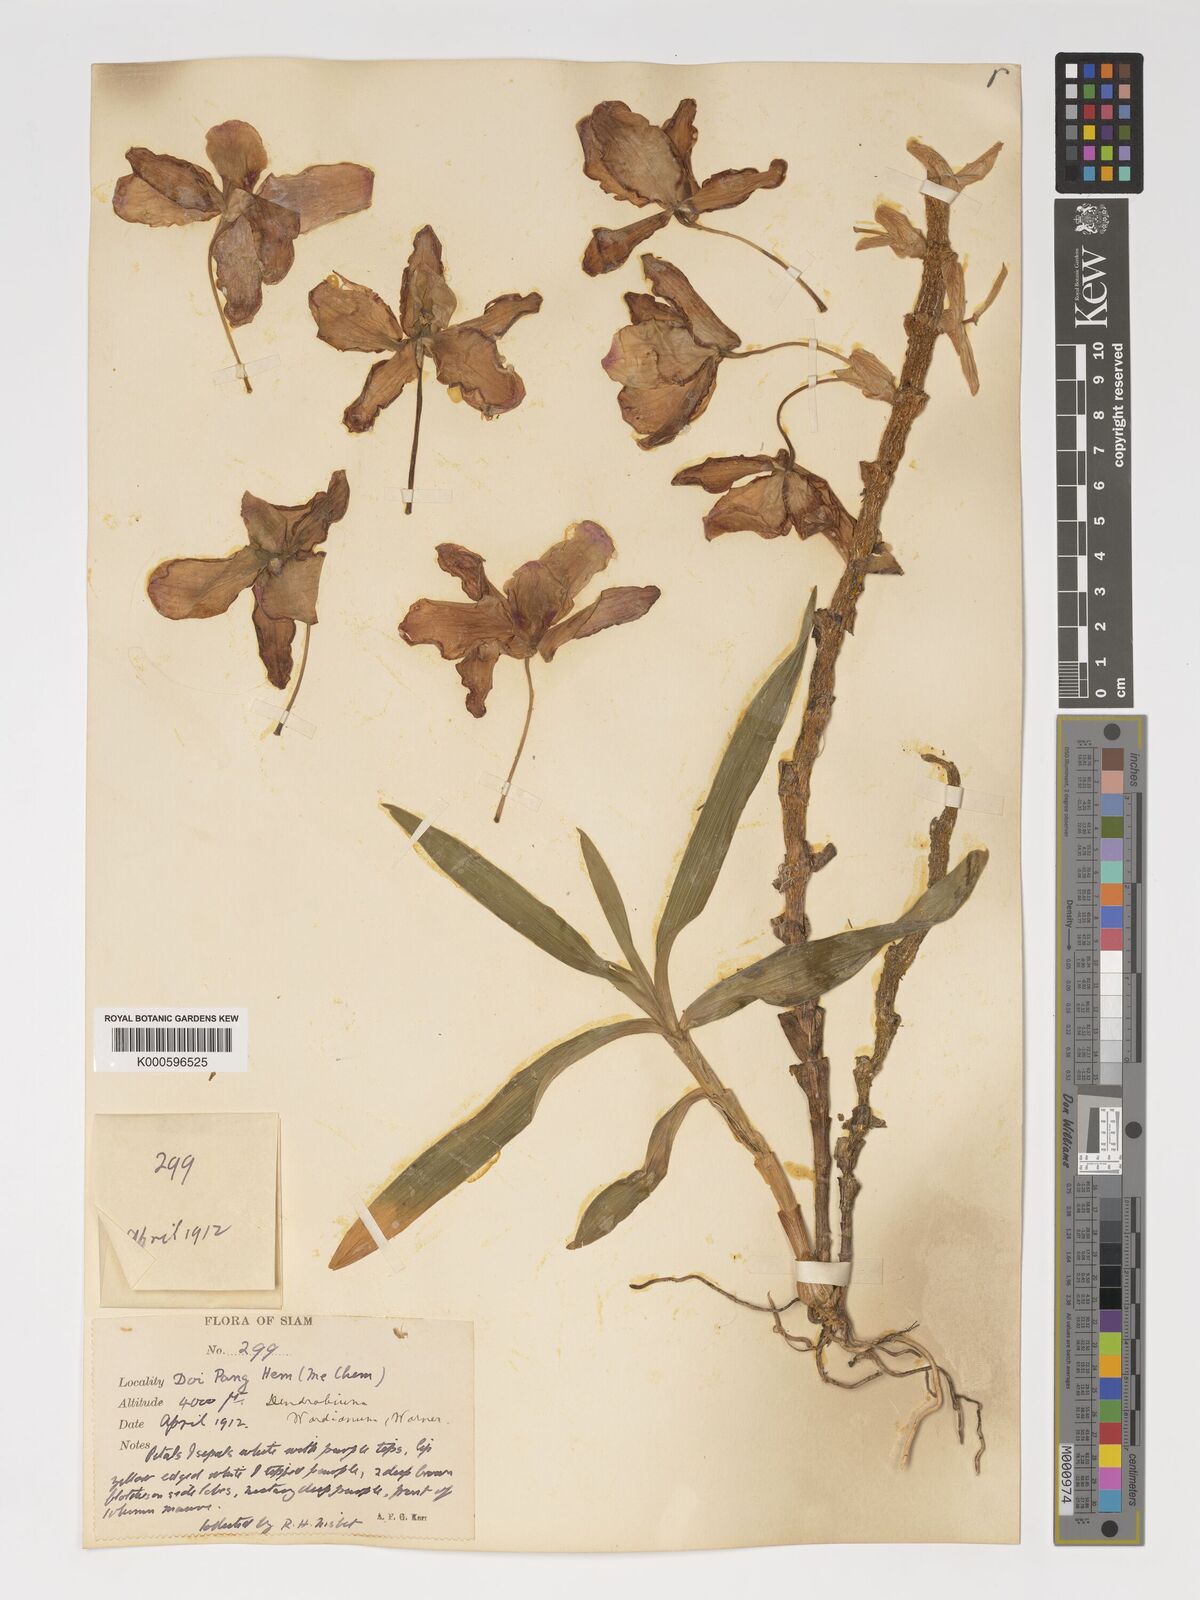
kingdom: Plantae
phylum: Tracheophyta
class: Liliopsida
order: Asparagales
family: Orchidaceae
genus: Dendrobium
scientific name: Dendrobium
